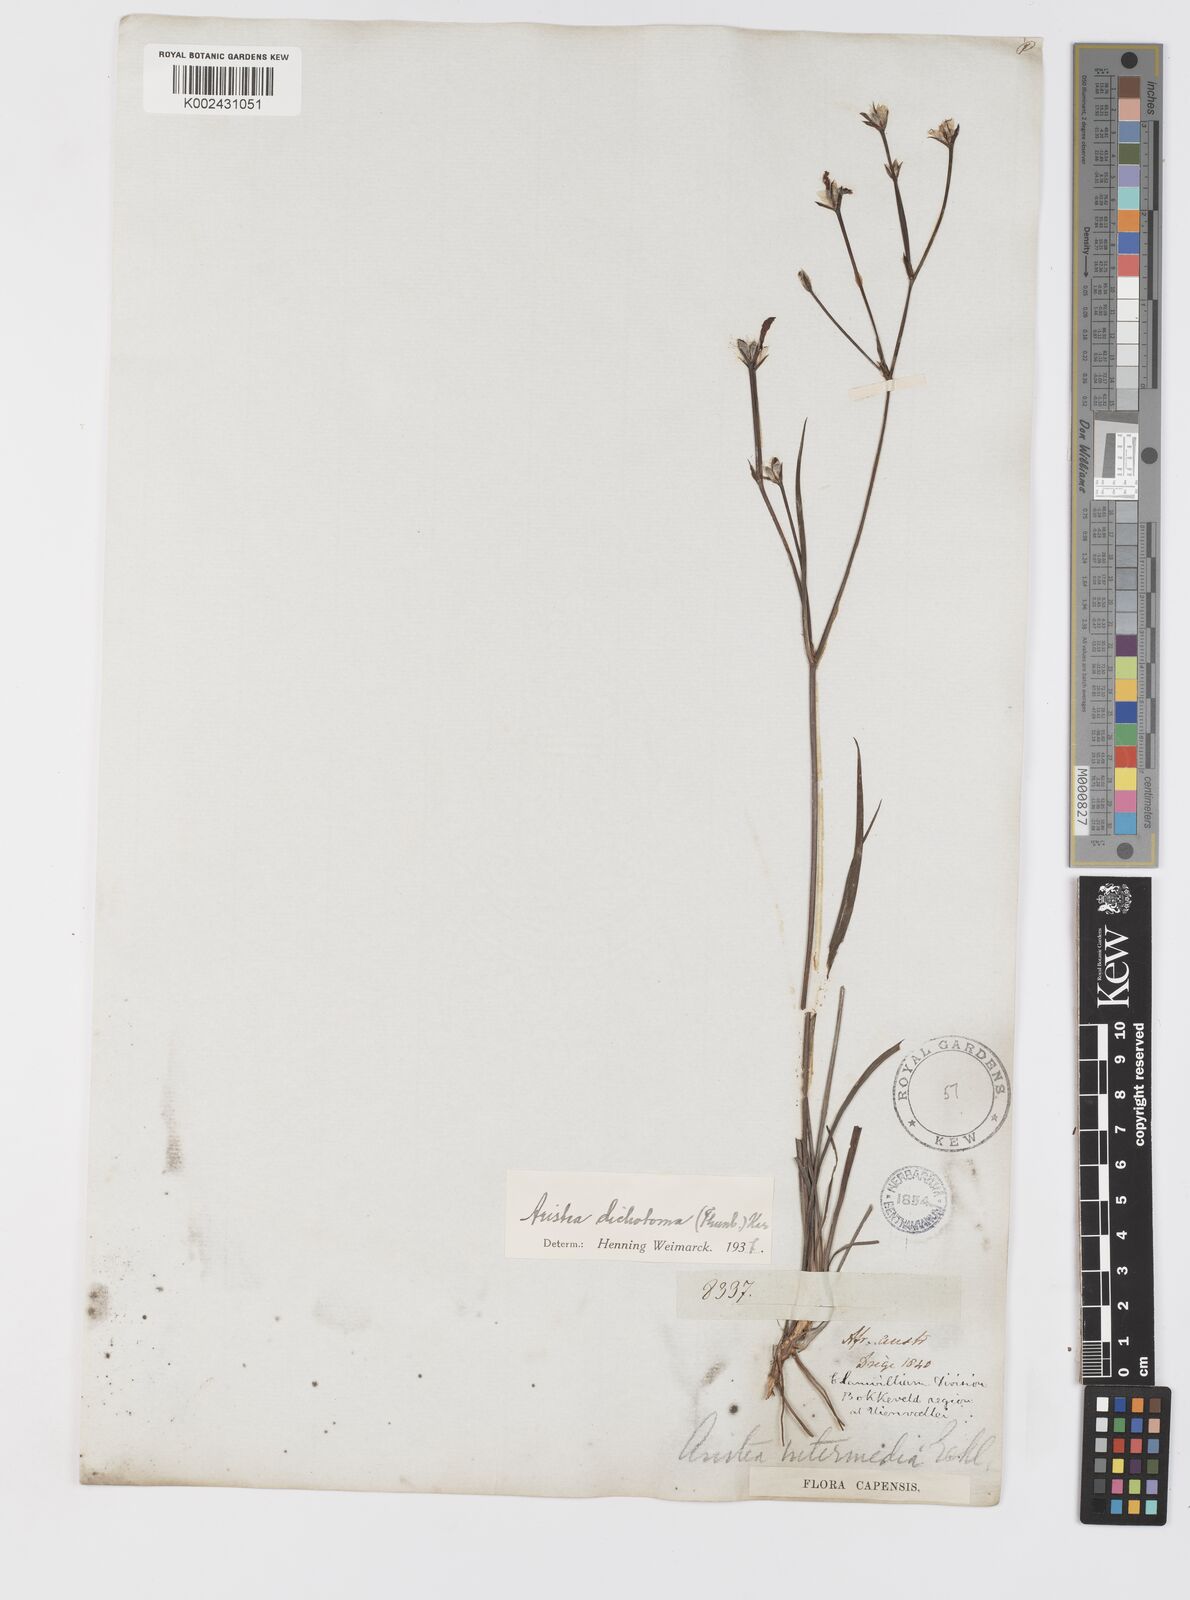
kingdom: Plantae
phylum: Tracheophyta
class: Liliopsida
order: Asparagales
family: Iridaceae
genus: Aristea
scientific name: Aristea dichotoma
